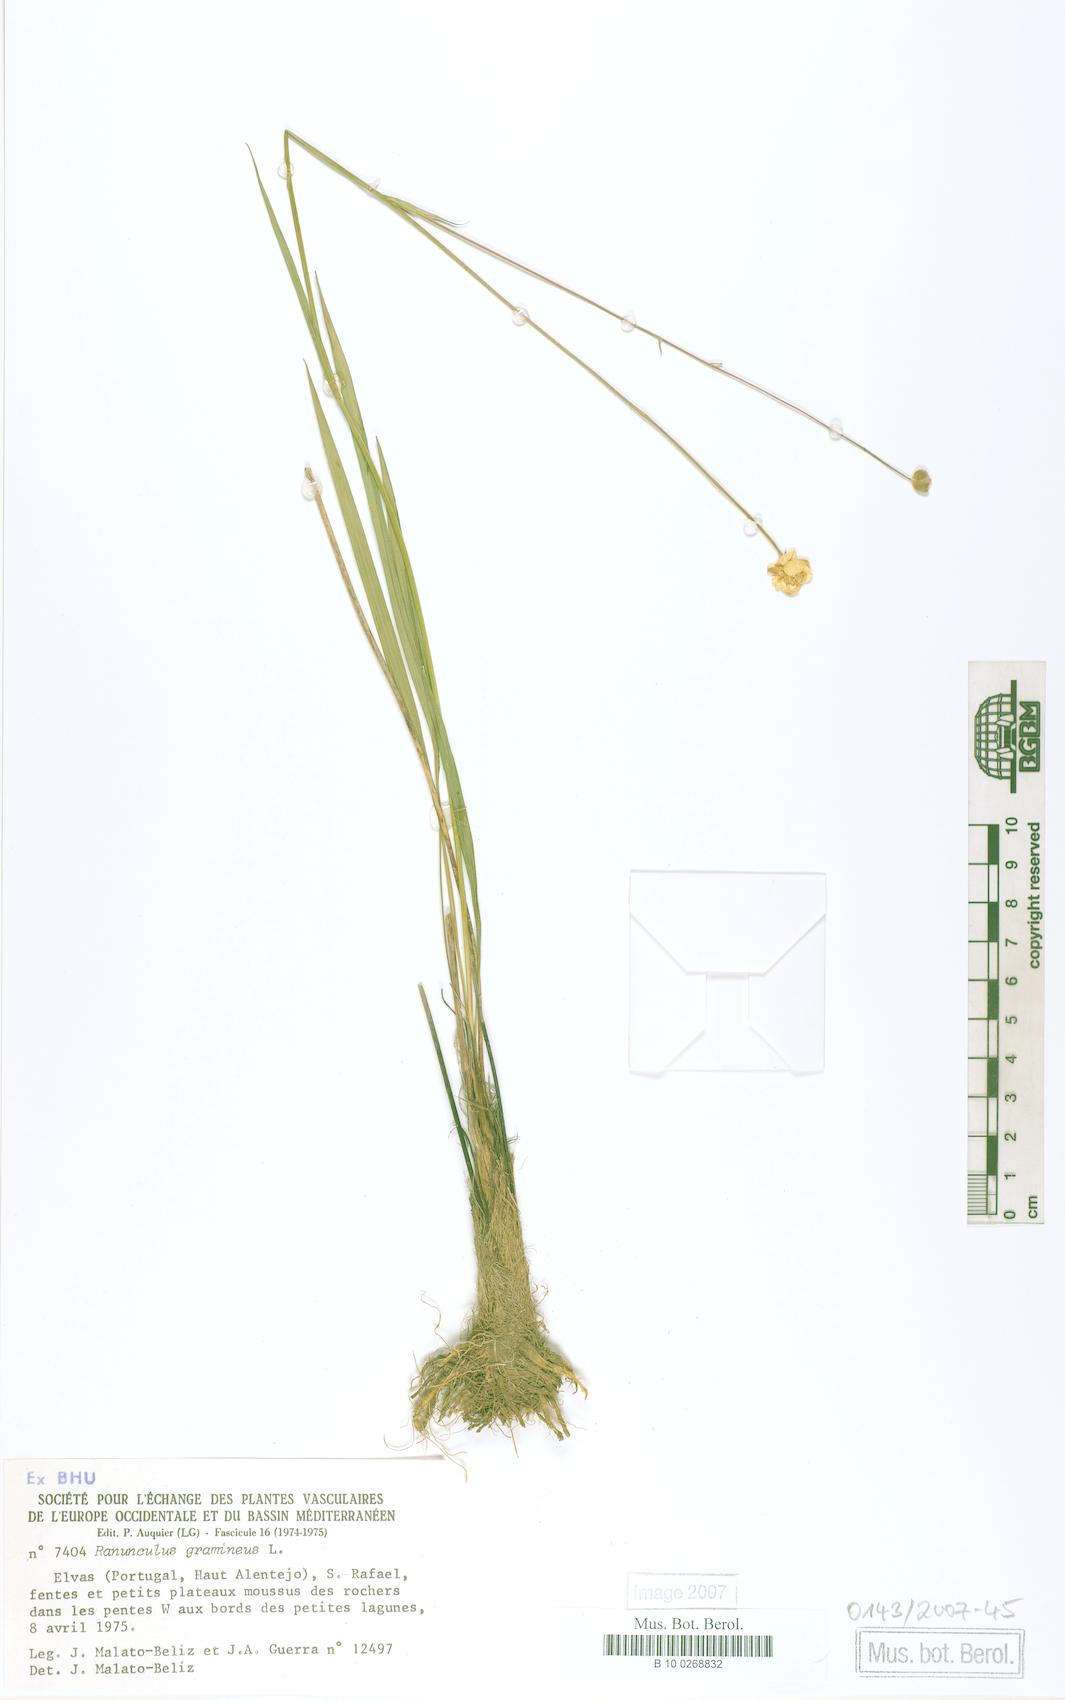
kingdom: Plantae
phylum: Tracheophyta
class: Magnoliopsida
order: Ranunculales
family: Ranunculaceae
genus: Ranunculus
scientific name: Ranunculus gramineus
